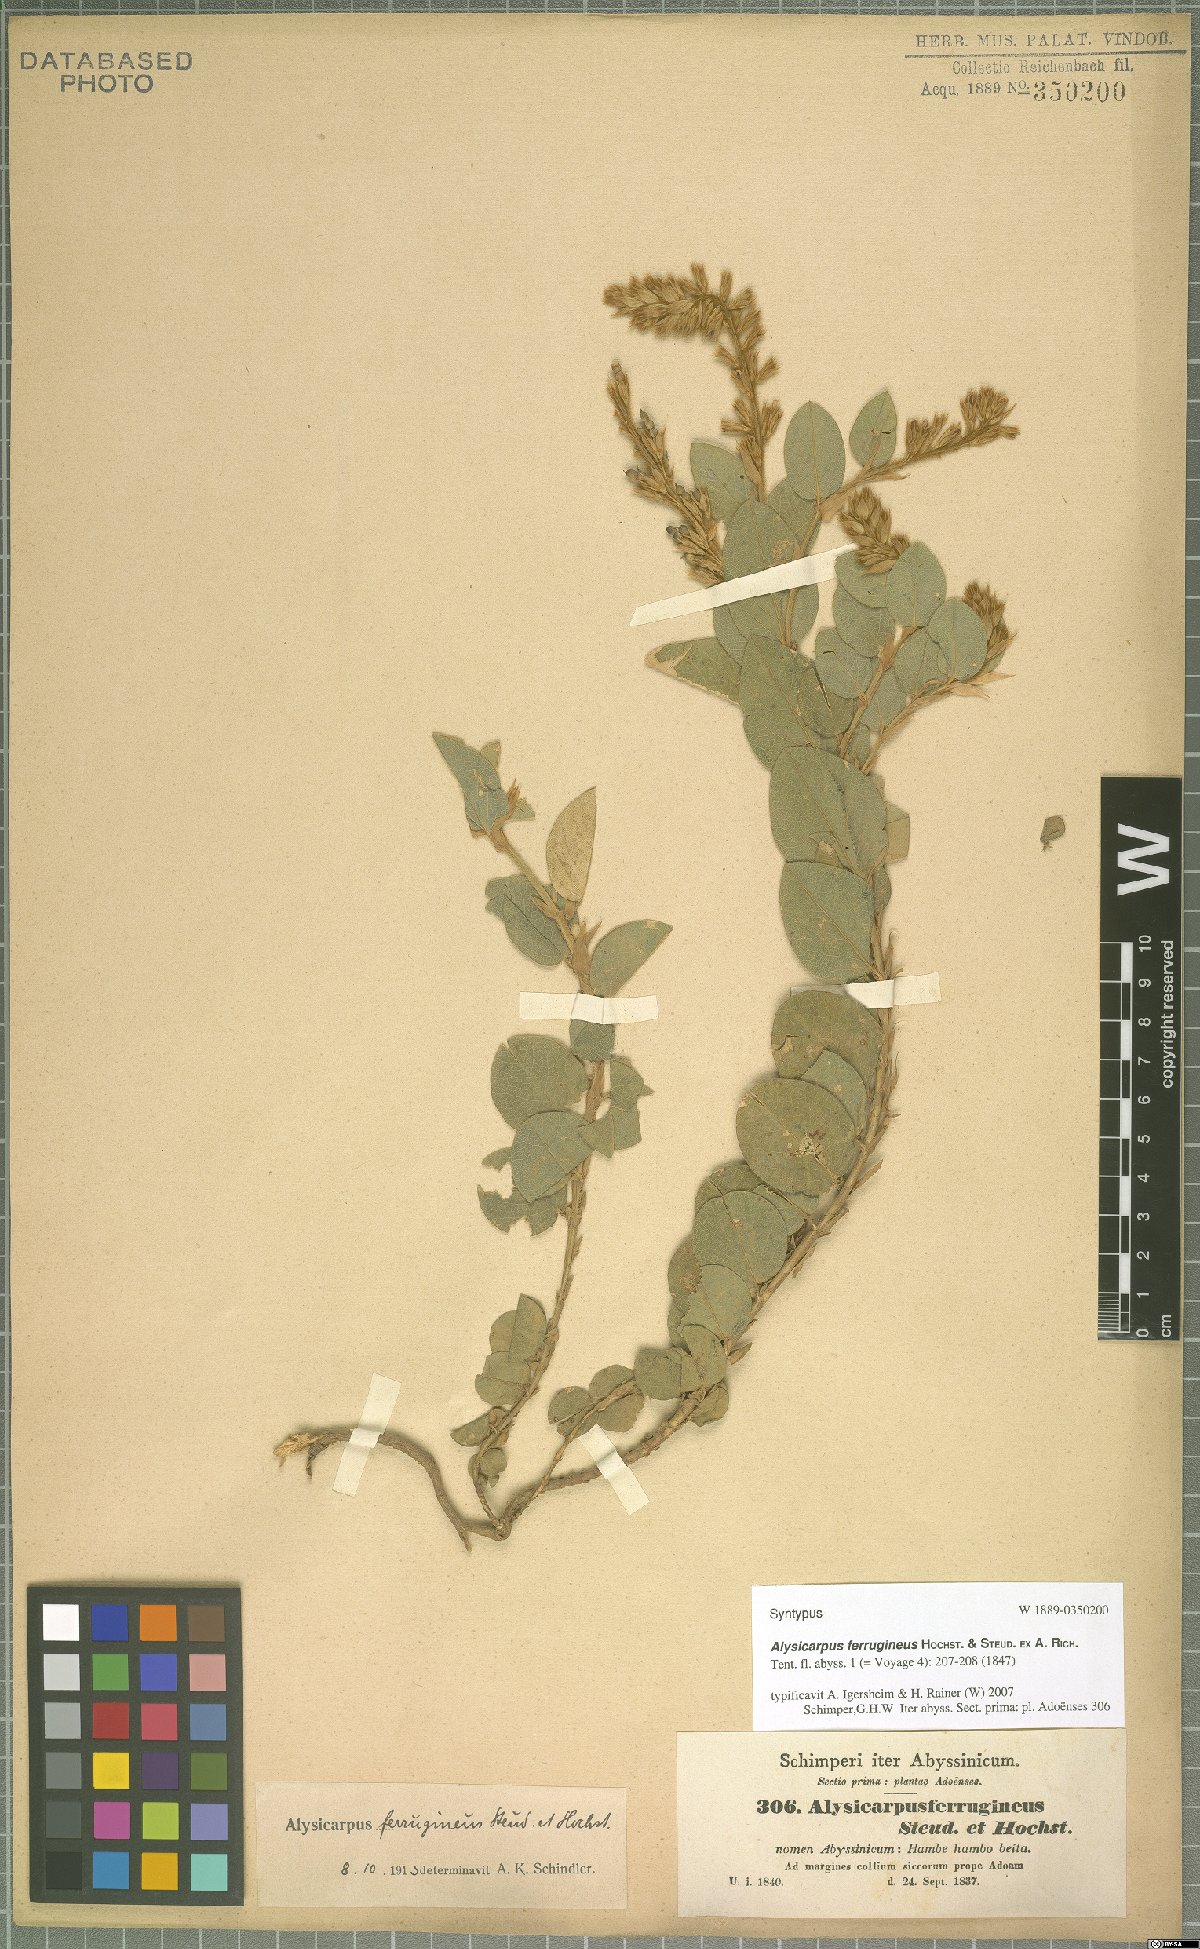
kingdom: Plantae
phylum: Tracheophyta
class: Magnoliopsida
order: Fabales
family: Fabaceae
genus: Alysicarpus
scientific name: Alysicarpus ferrugineus
